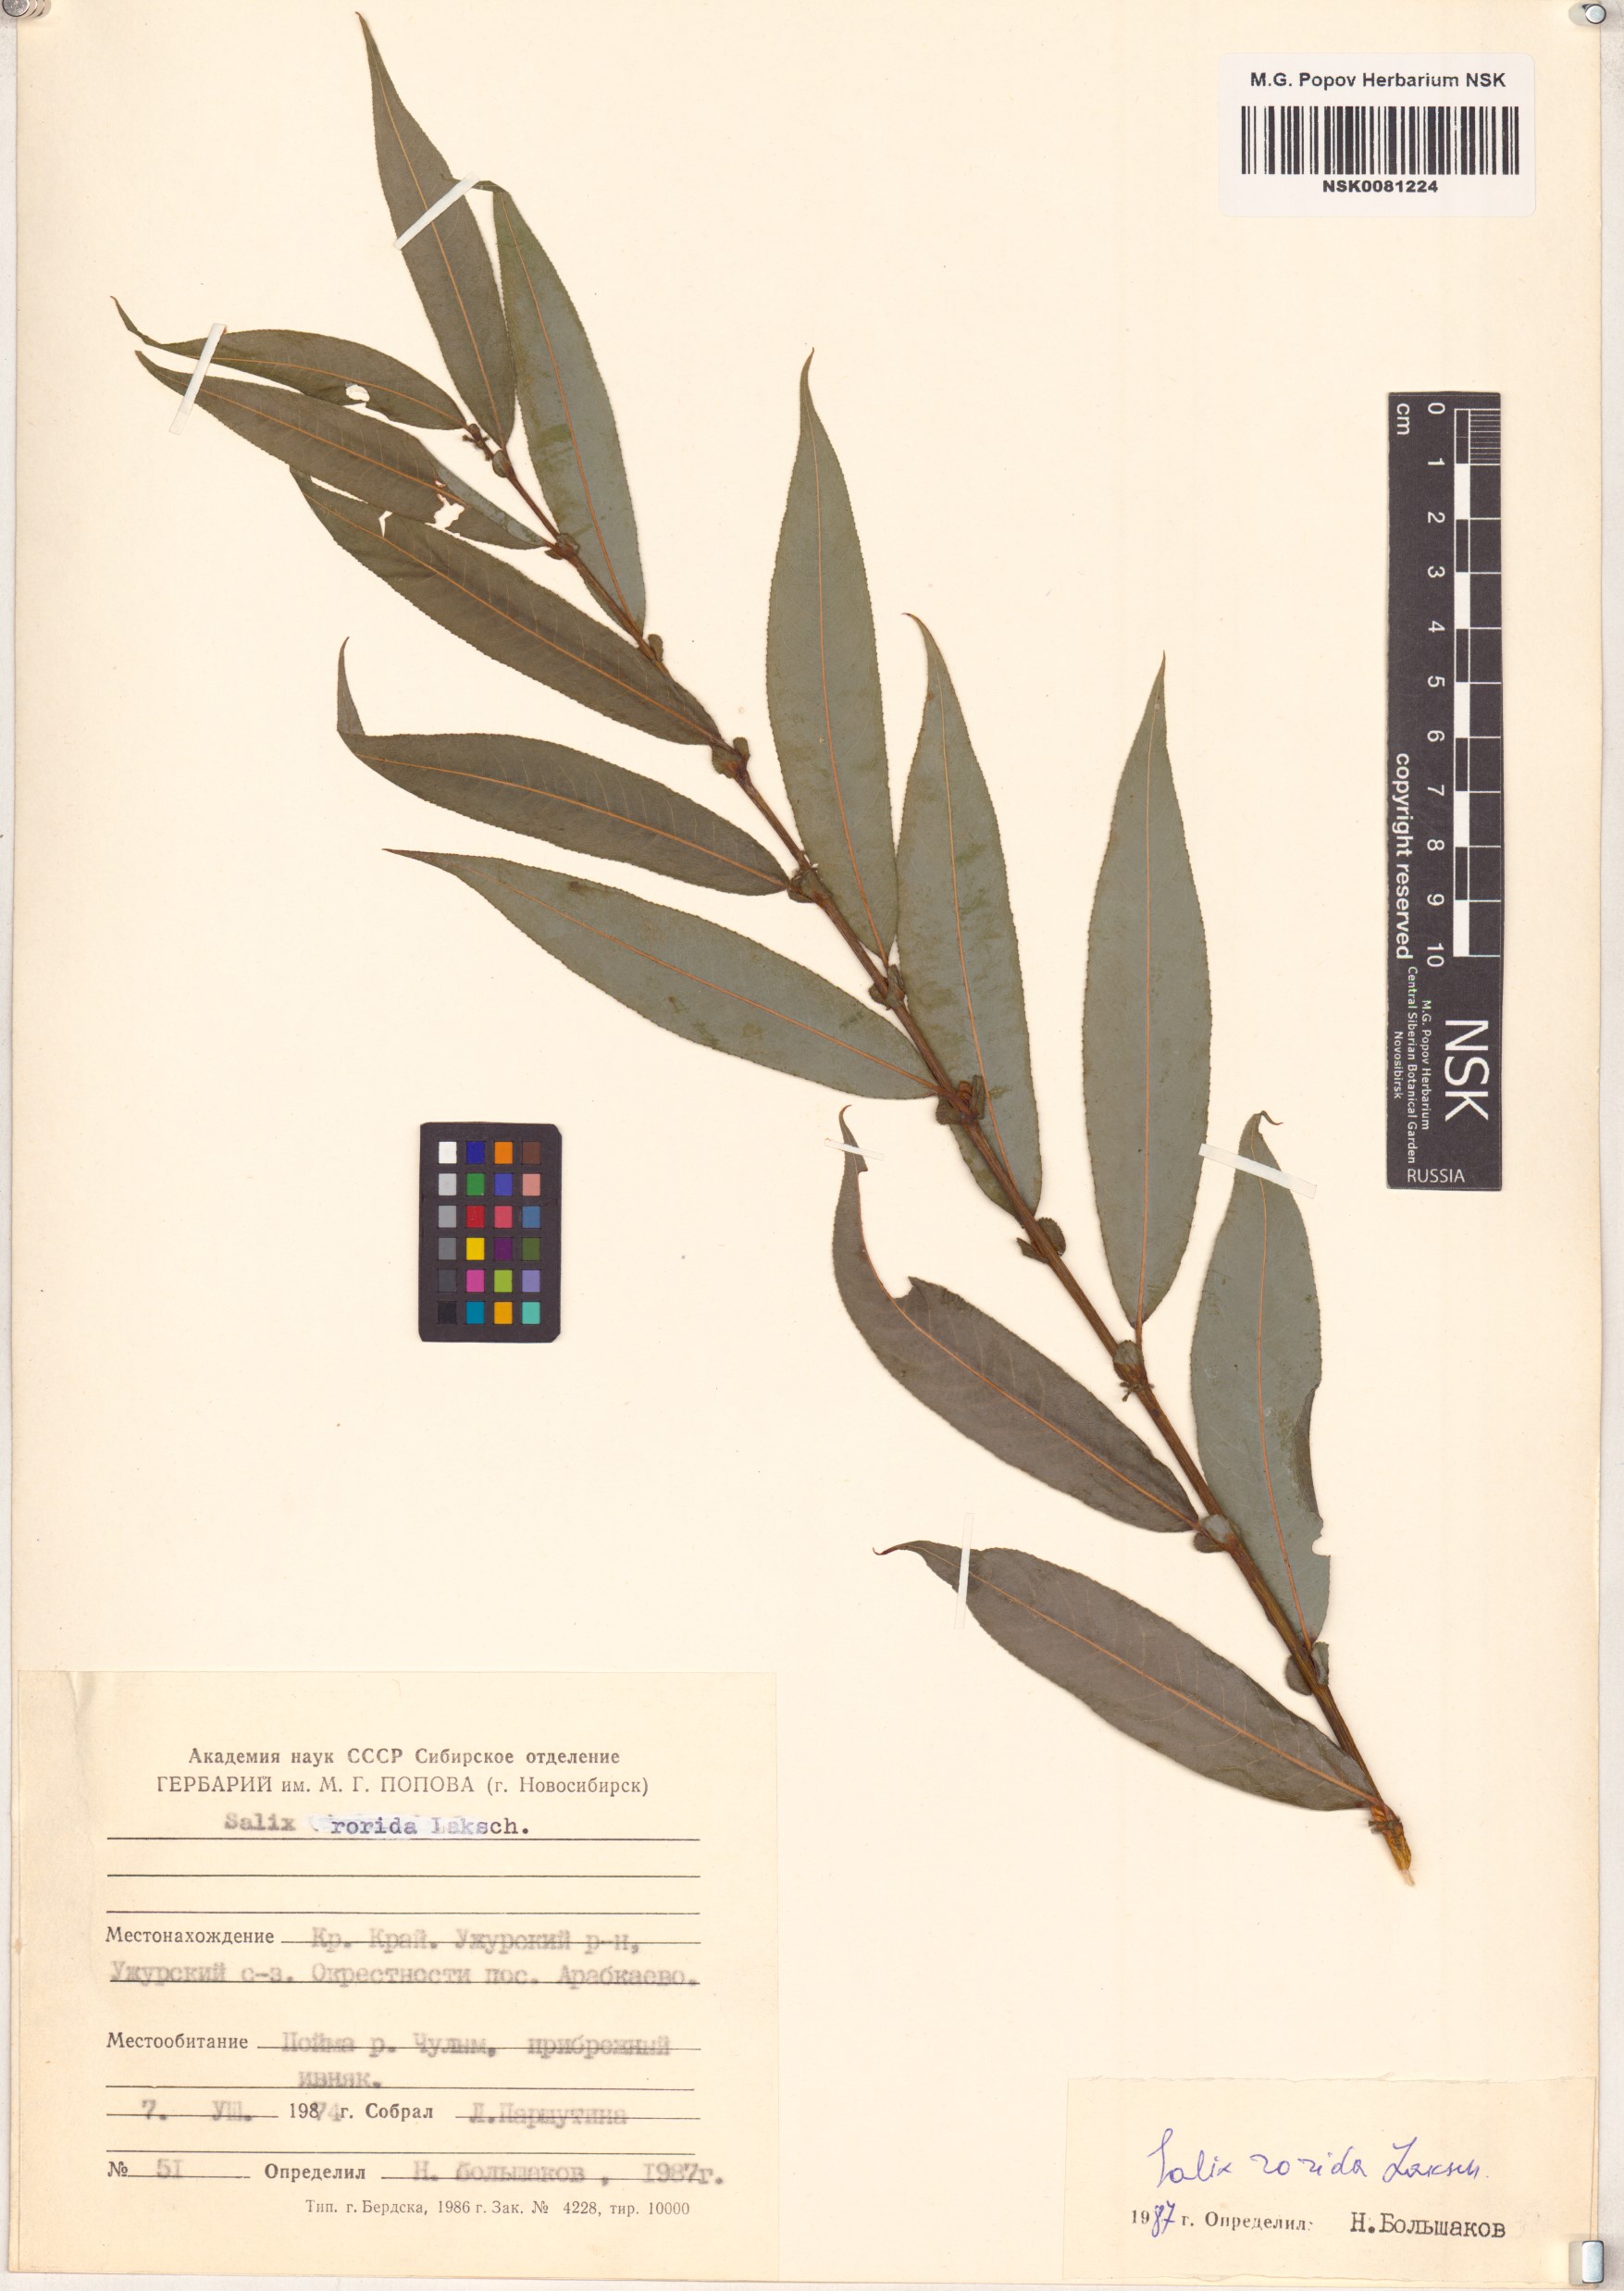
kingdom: Plantae
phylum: Tracheophyta
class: Magnoliopsida
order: Malpighiales
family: Salicaceae
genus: Salix
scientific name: Salix rorida
